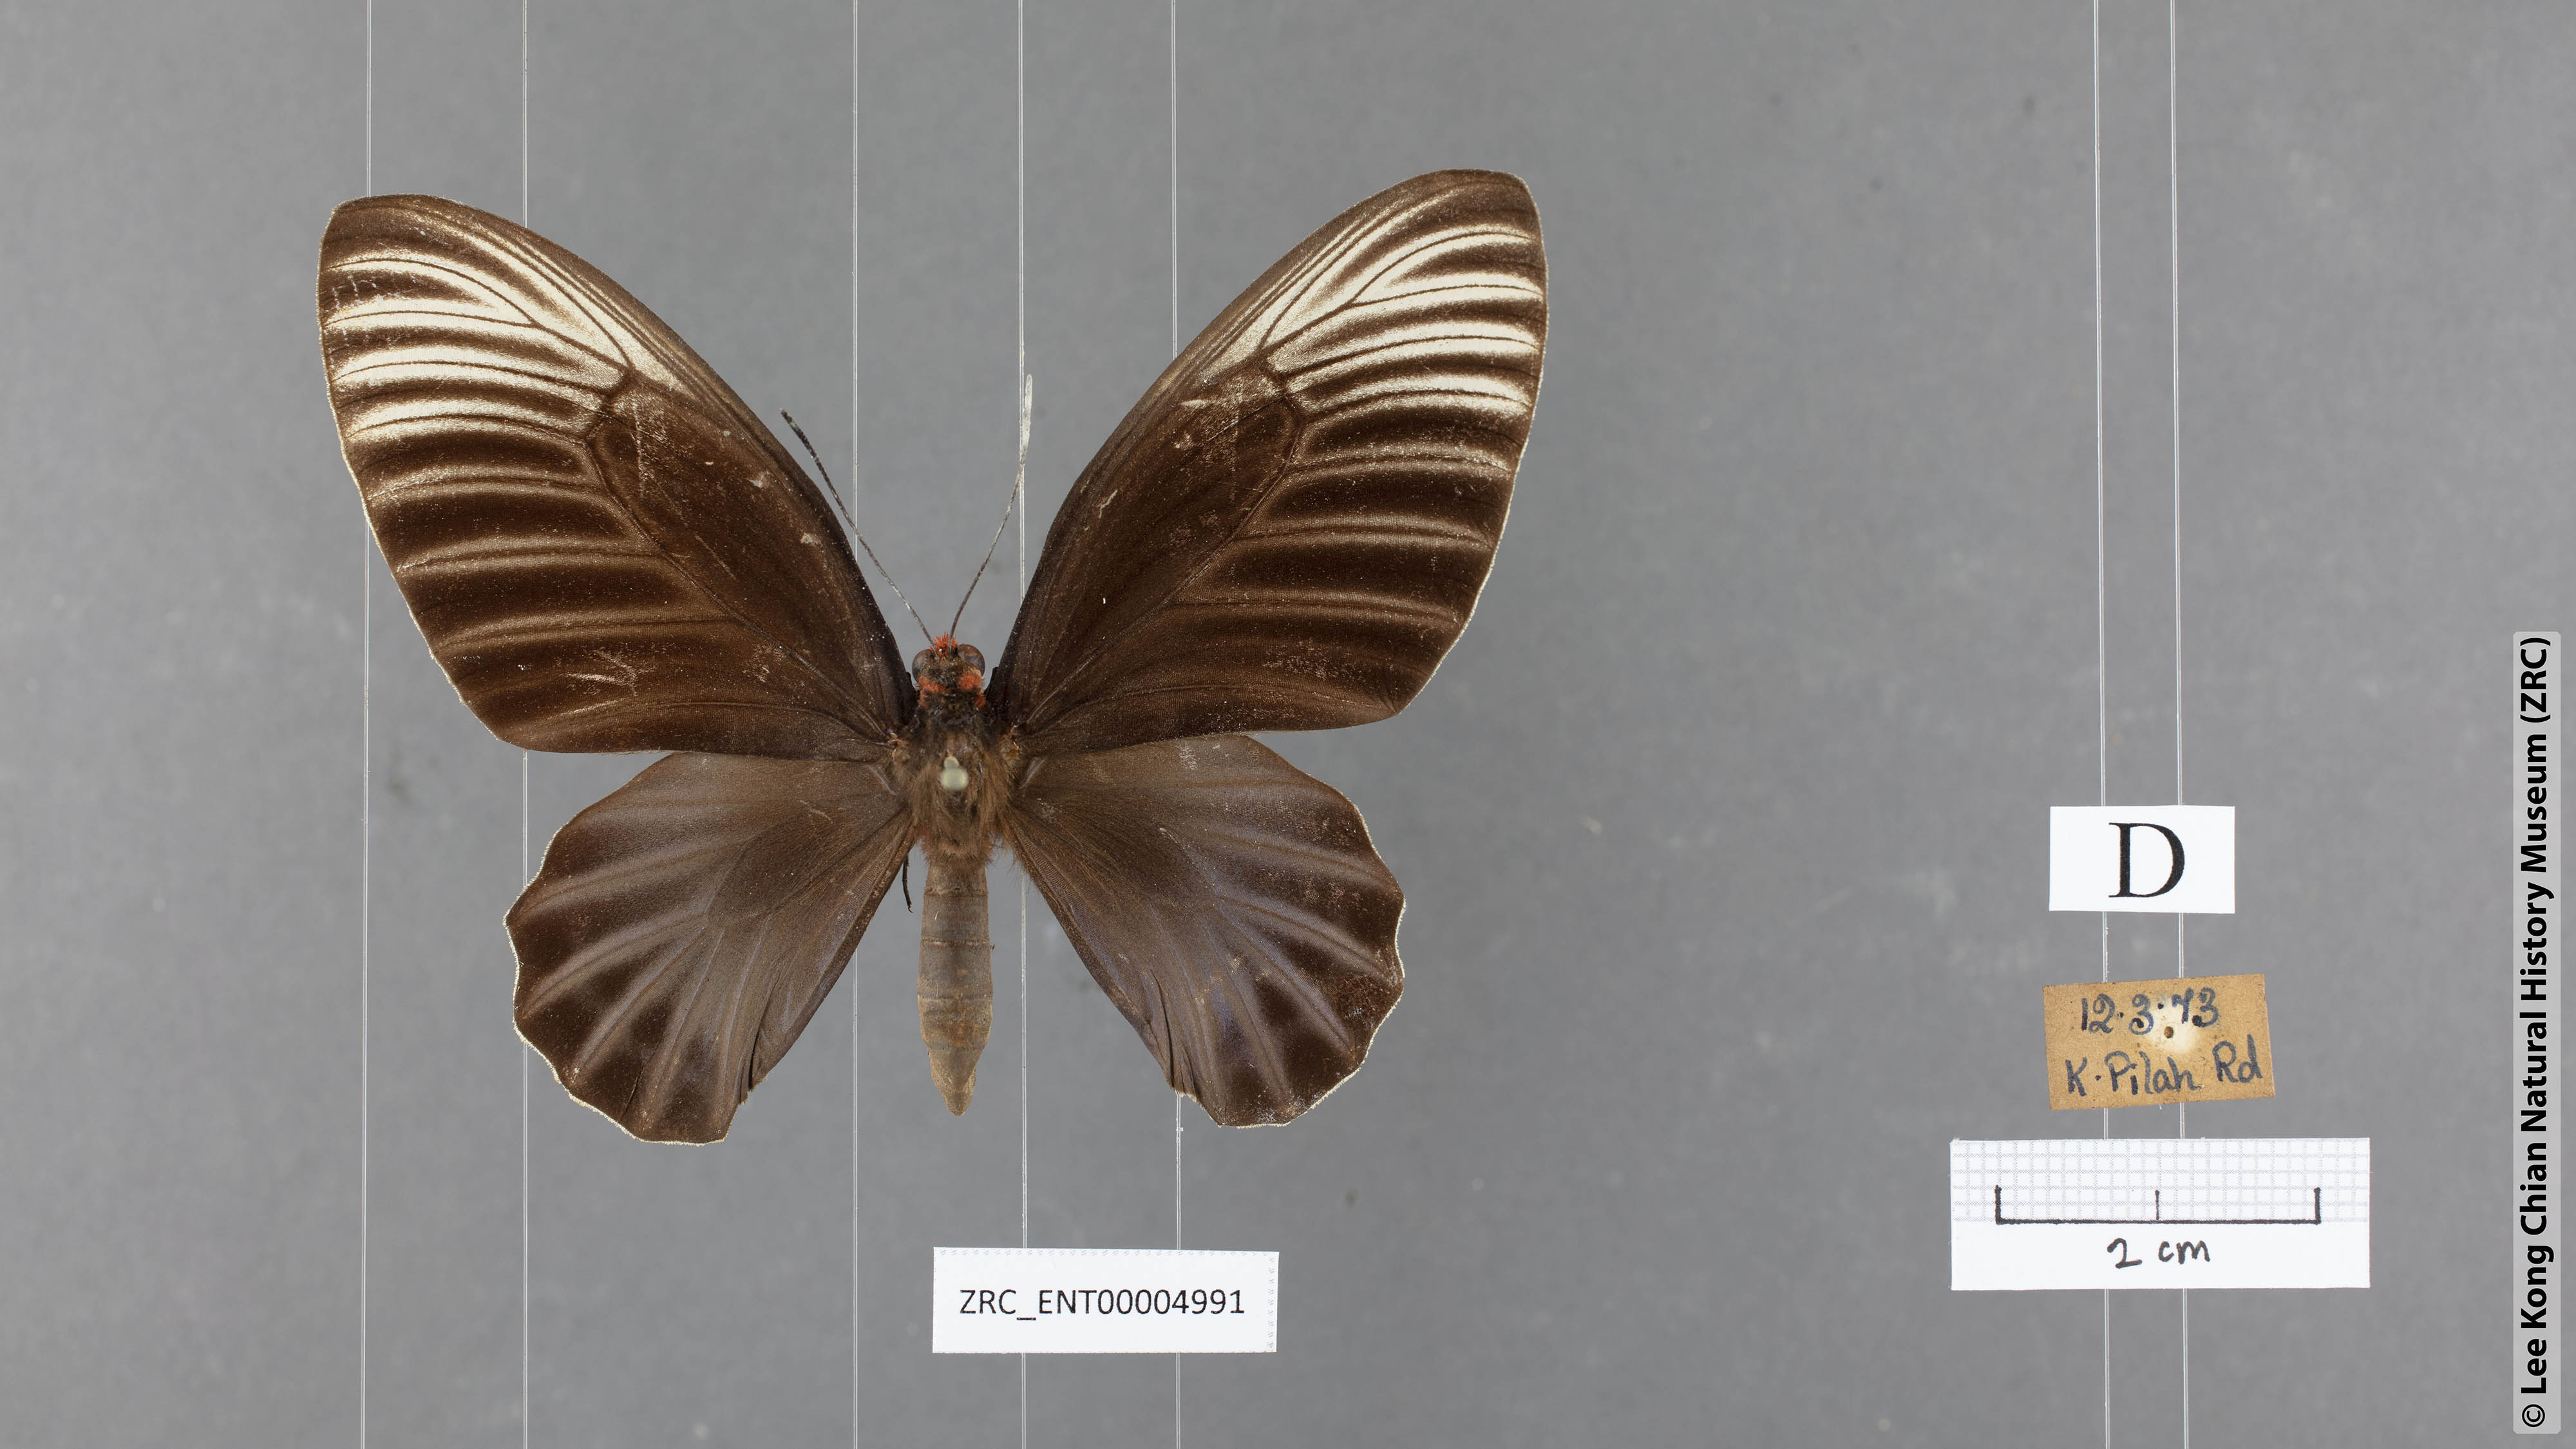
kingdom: Animalia
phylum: Arthropoda
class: Insecta
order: Lepidoptera
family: Papilionidae
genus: Atrophaneura
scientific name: Atrophaneura nox
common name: Malayan batwing
